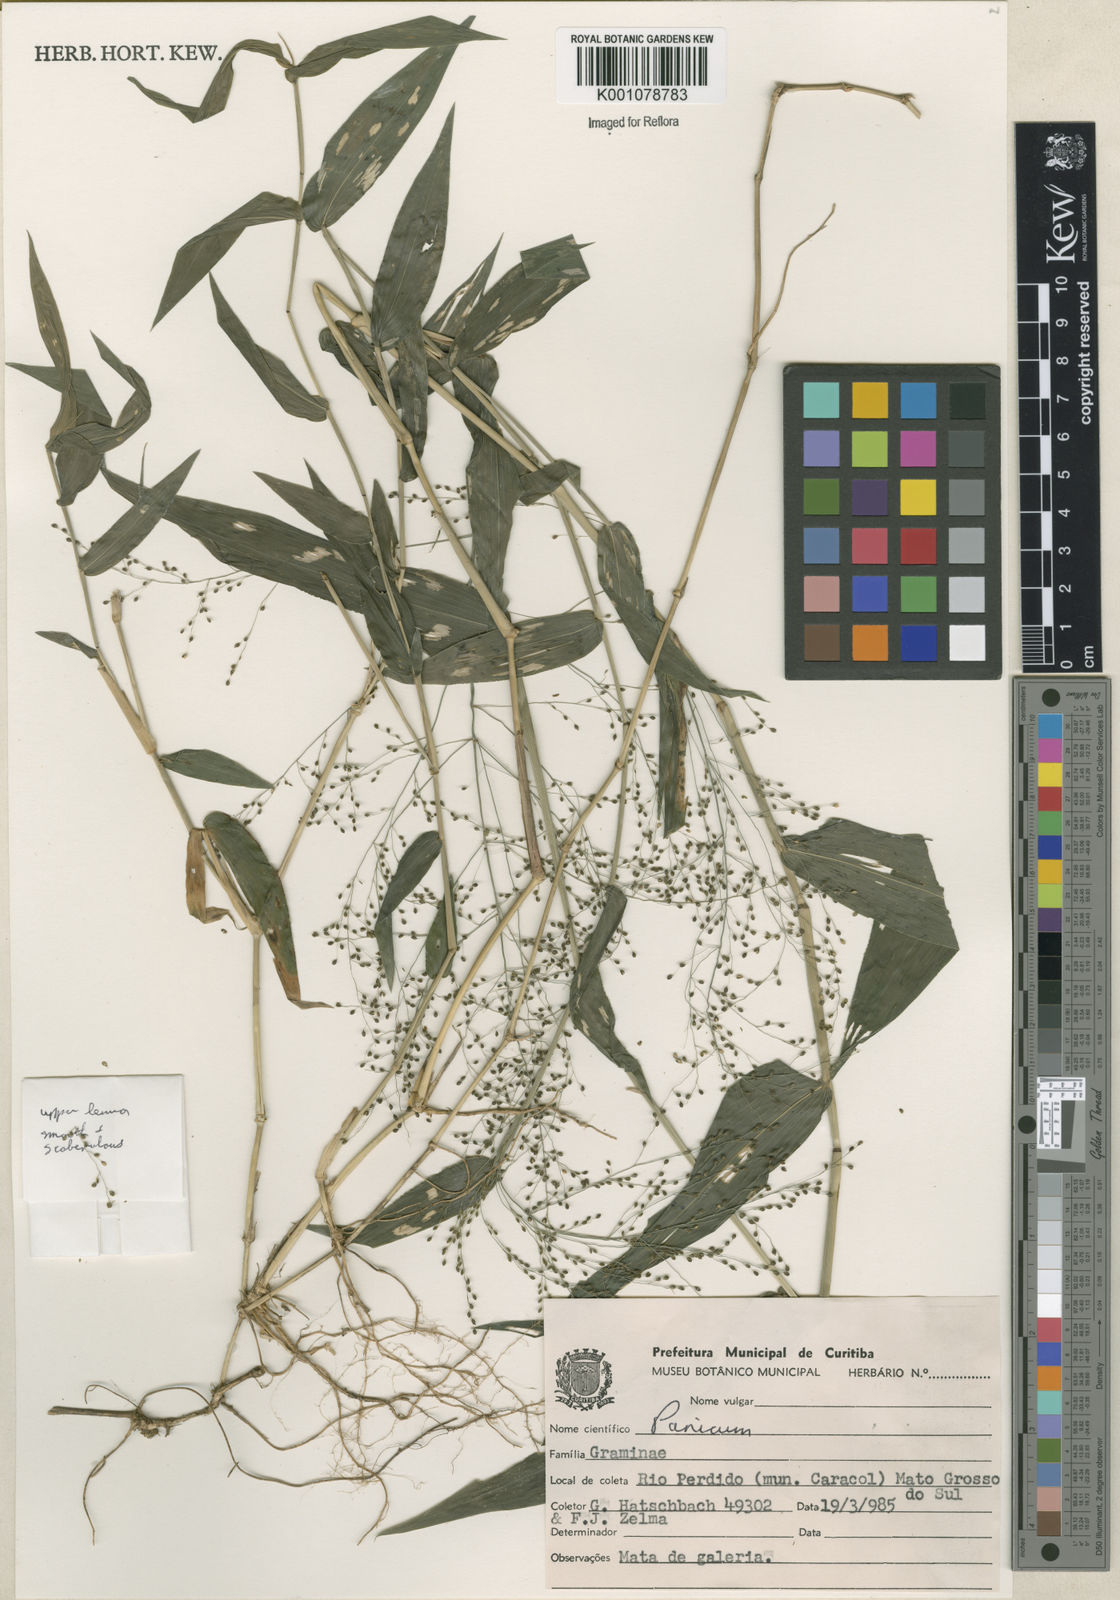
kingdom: Plantae
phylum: Tracheophyta
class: Liliopsida
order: Poales
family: Poaceae
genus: Panicum
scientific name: Panicum
